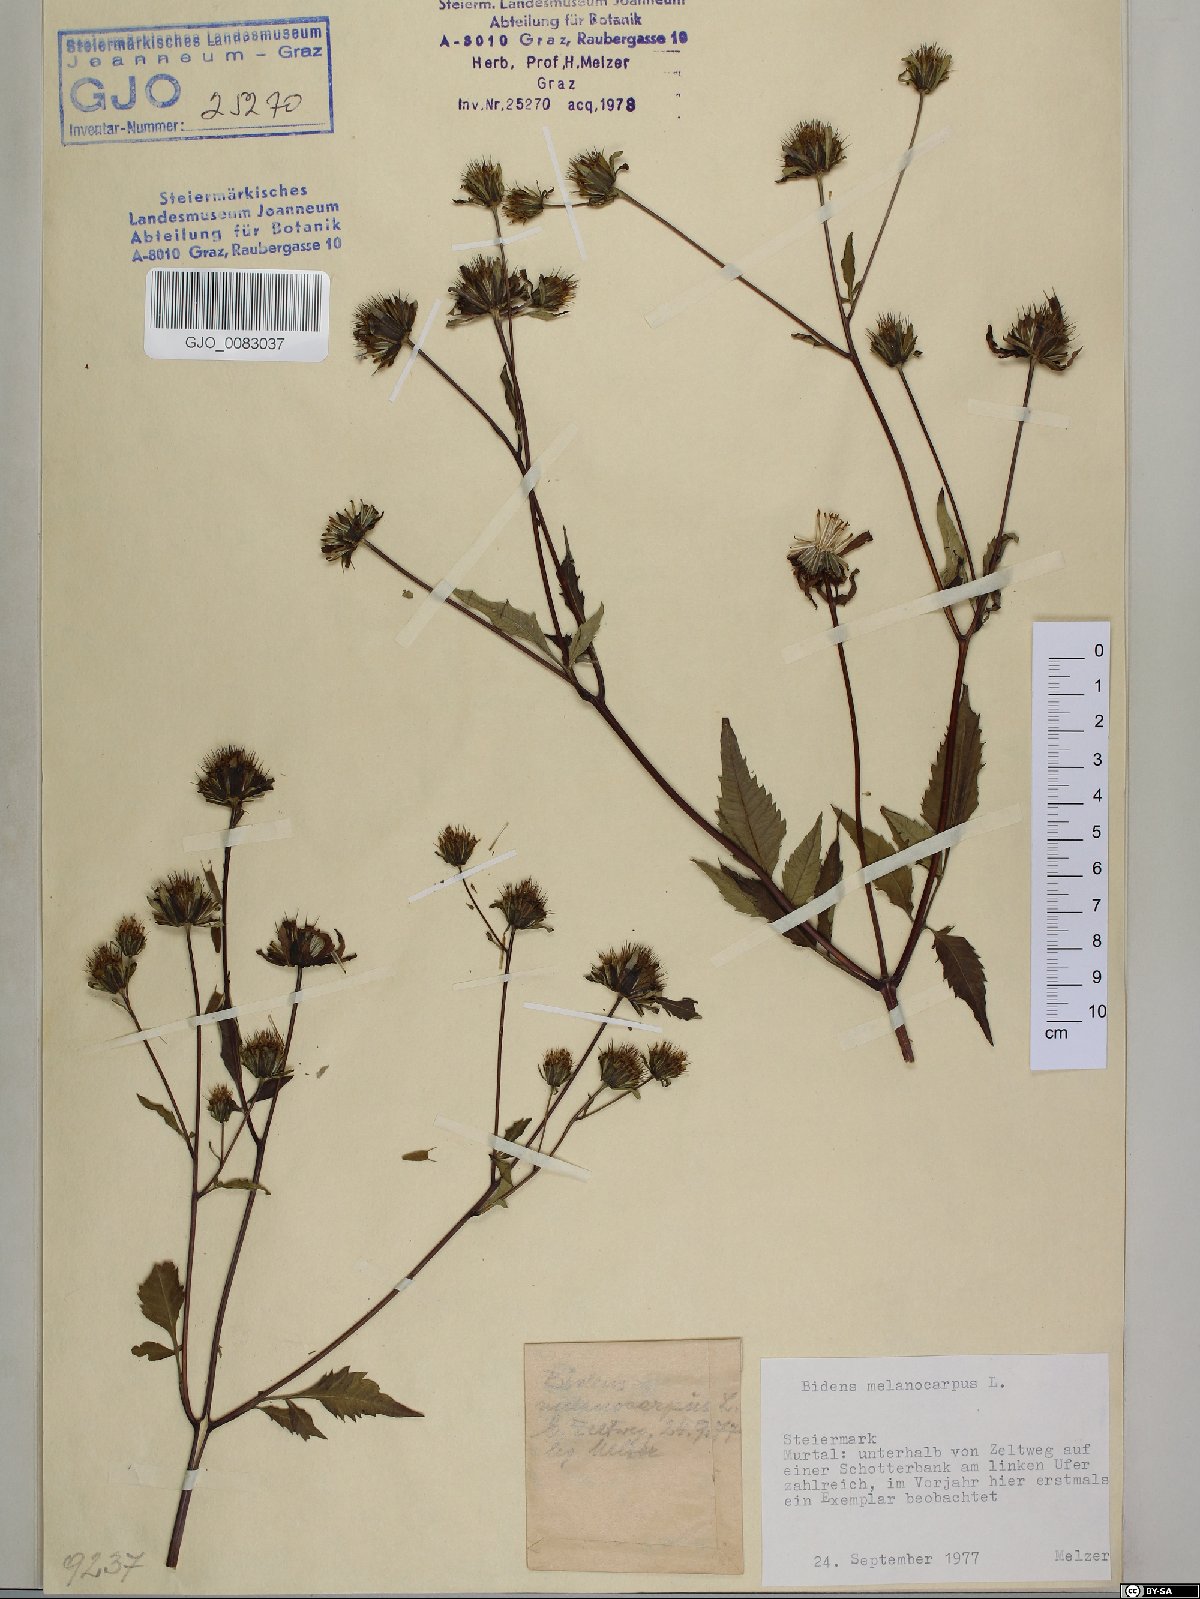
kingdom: Plantae
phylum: Tracheophyta
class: Magnoliopsida
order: Asterales
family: Asteraceae
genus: Bidens
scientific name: Bidens frondosa
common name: Beggarticks
